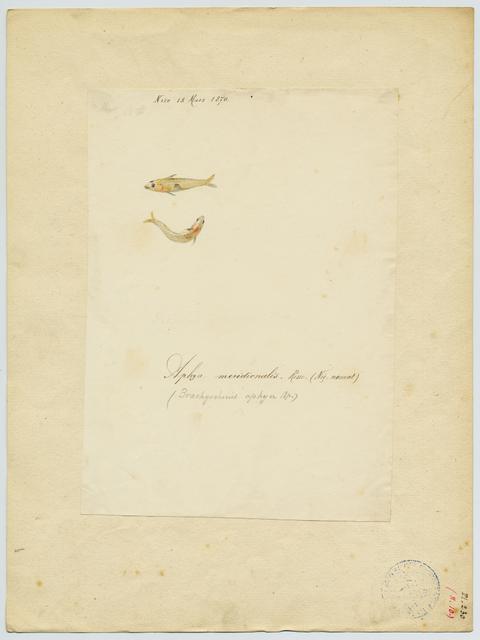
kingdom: Animalia
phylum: Chordata
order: Perciformes
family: Gobiidae
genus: Aphia
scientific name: Aphia minuta
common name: Transparent goby
